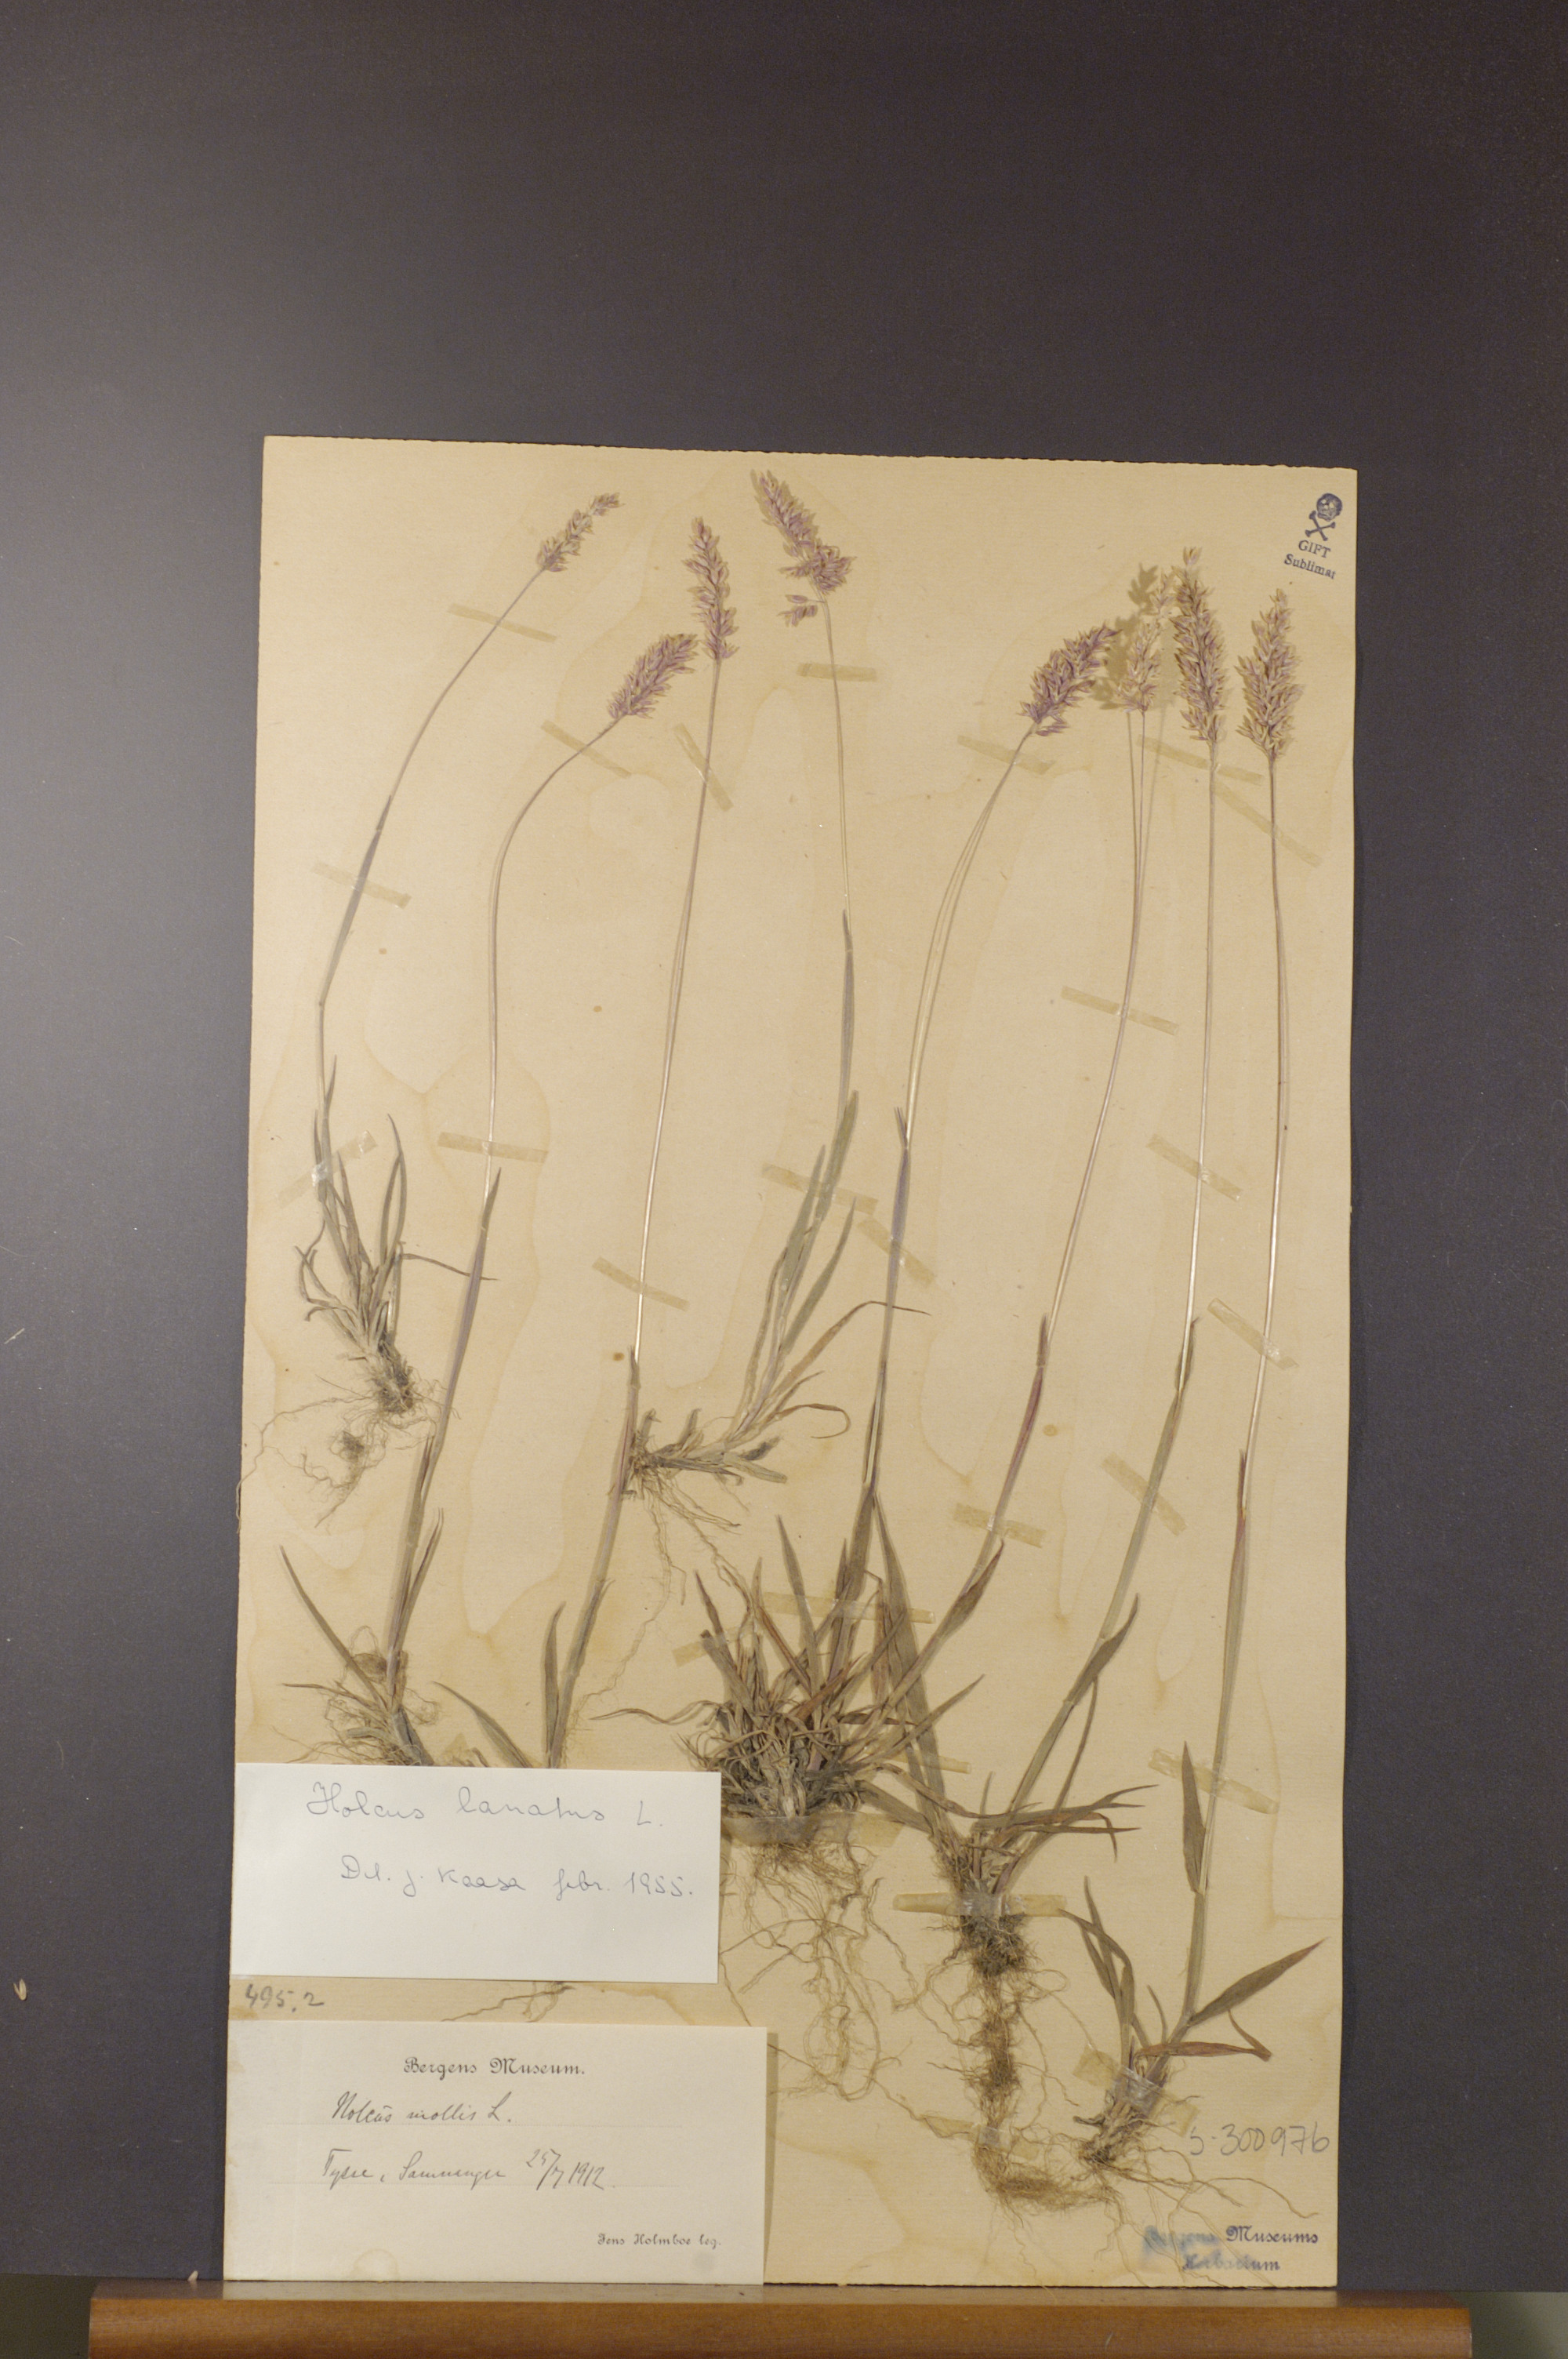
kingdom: Plantae
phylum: Tracheophyta
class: Liliopsida
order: Poales
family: Poaceae
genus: Holcus
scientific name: Holcus lanatus
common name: Yorkshire-fog
